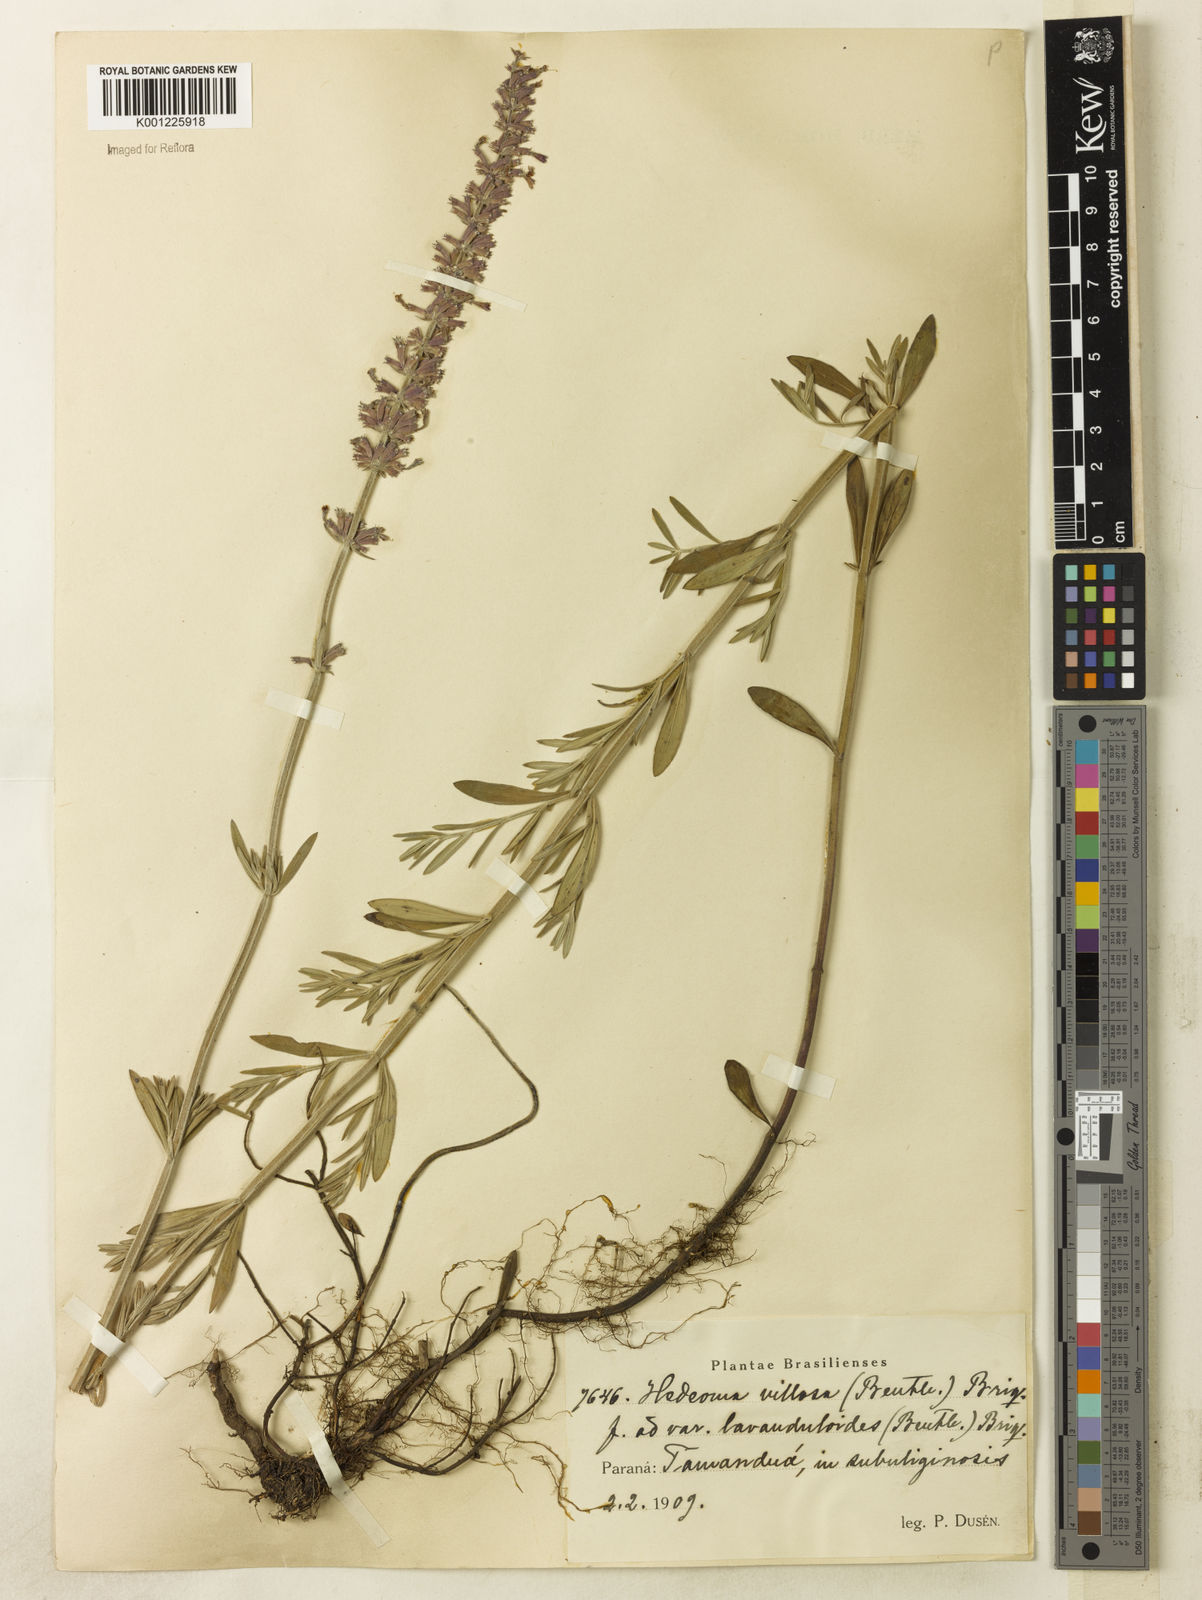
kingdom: Plantae
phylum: Tracheophyta
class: Magnoliopsida
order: Lamiales
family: Lamiaceae
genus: Rhabdocaulon
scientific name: Rhabdocaulon lavanduloides
